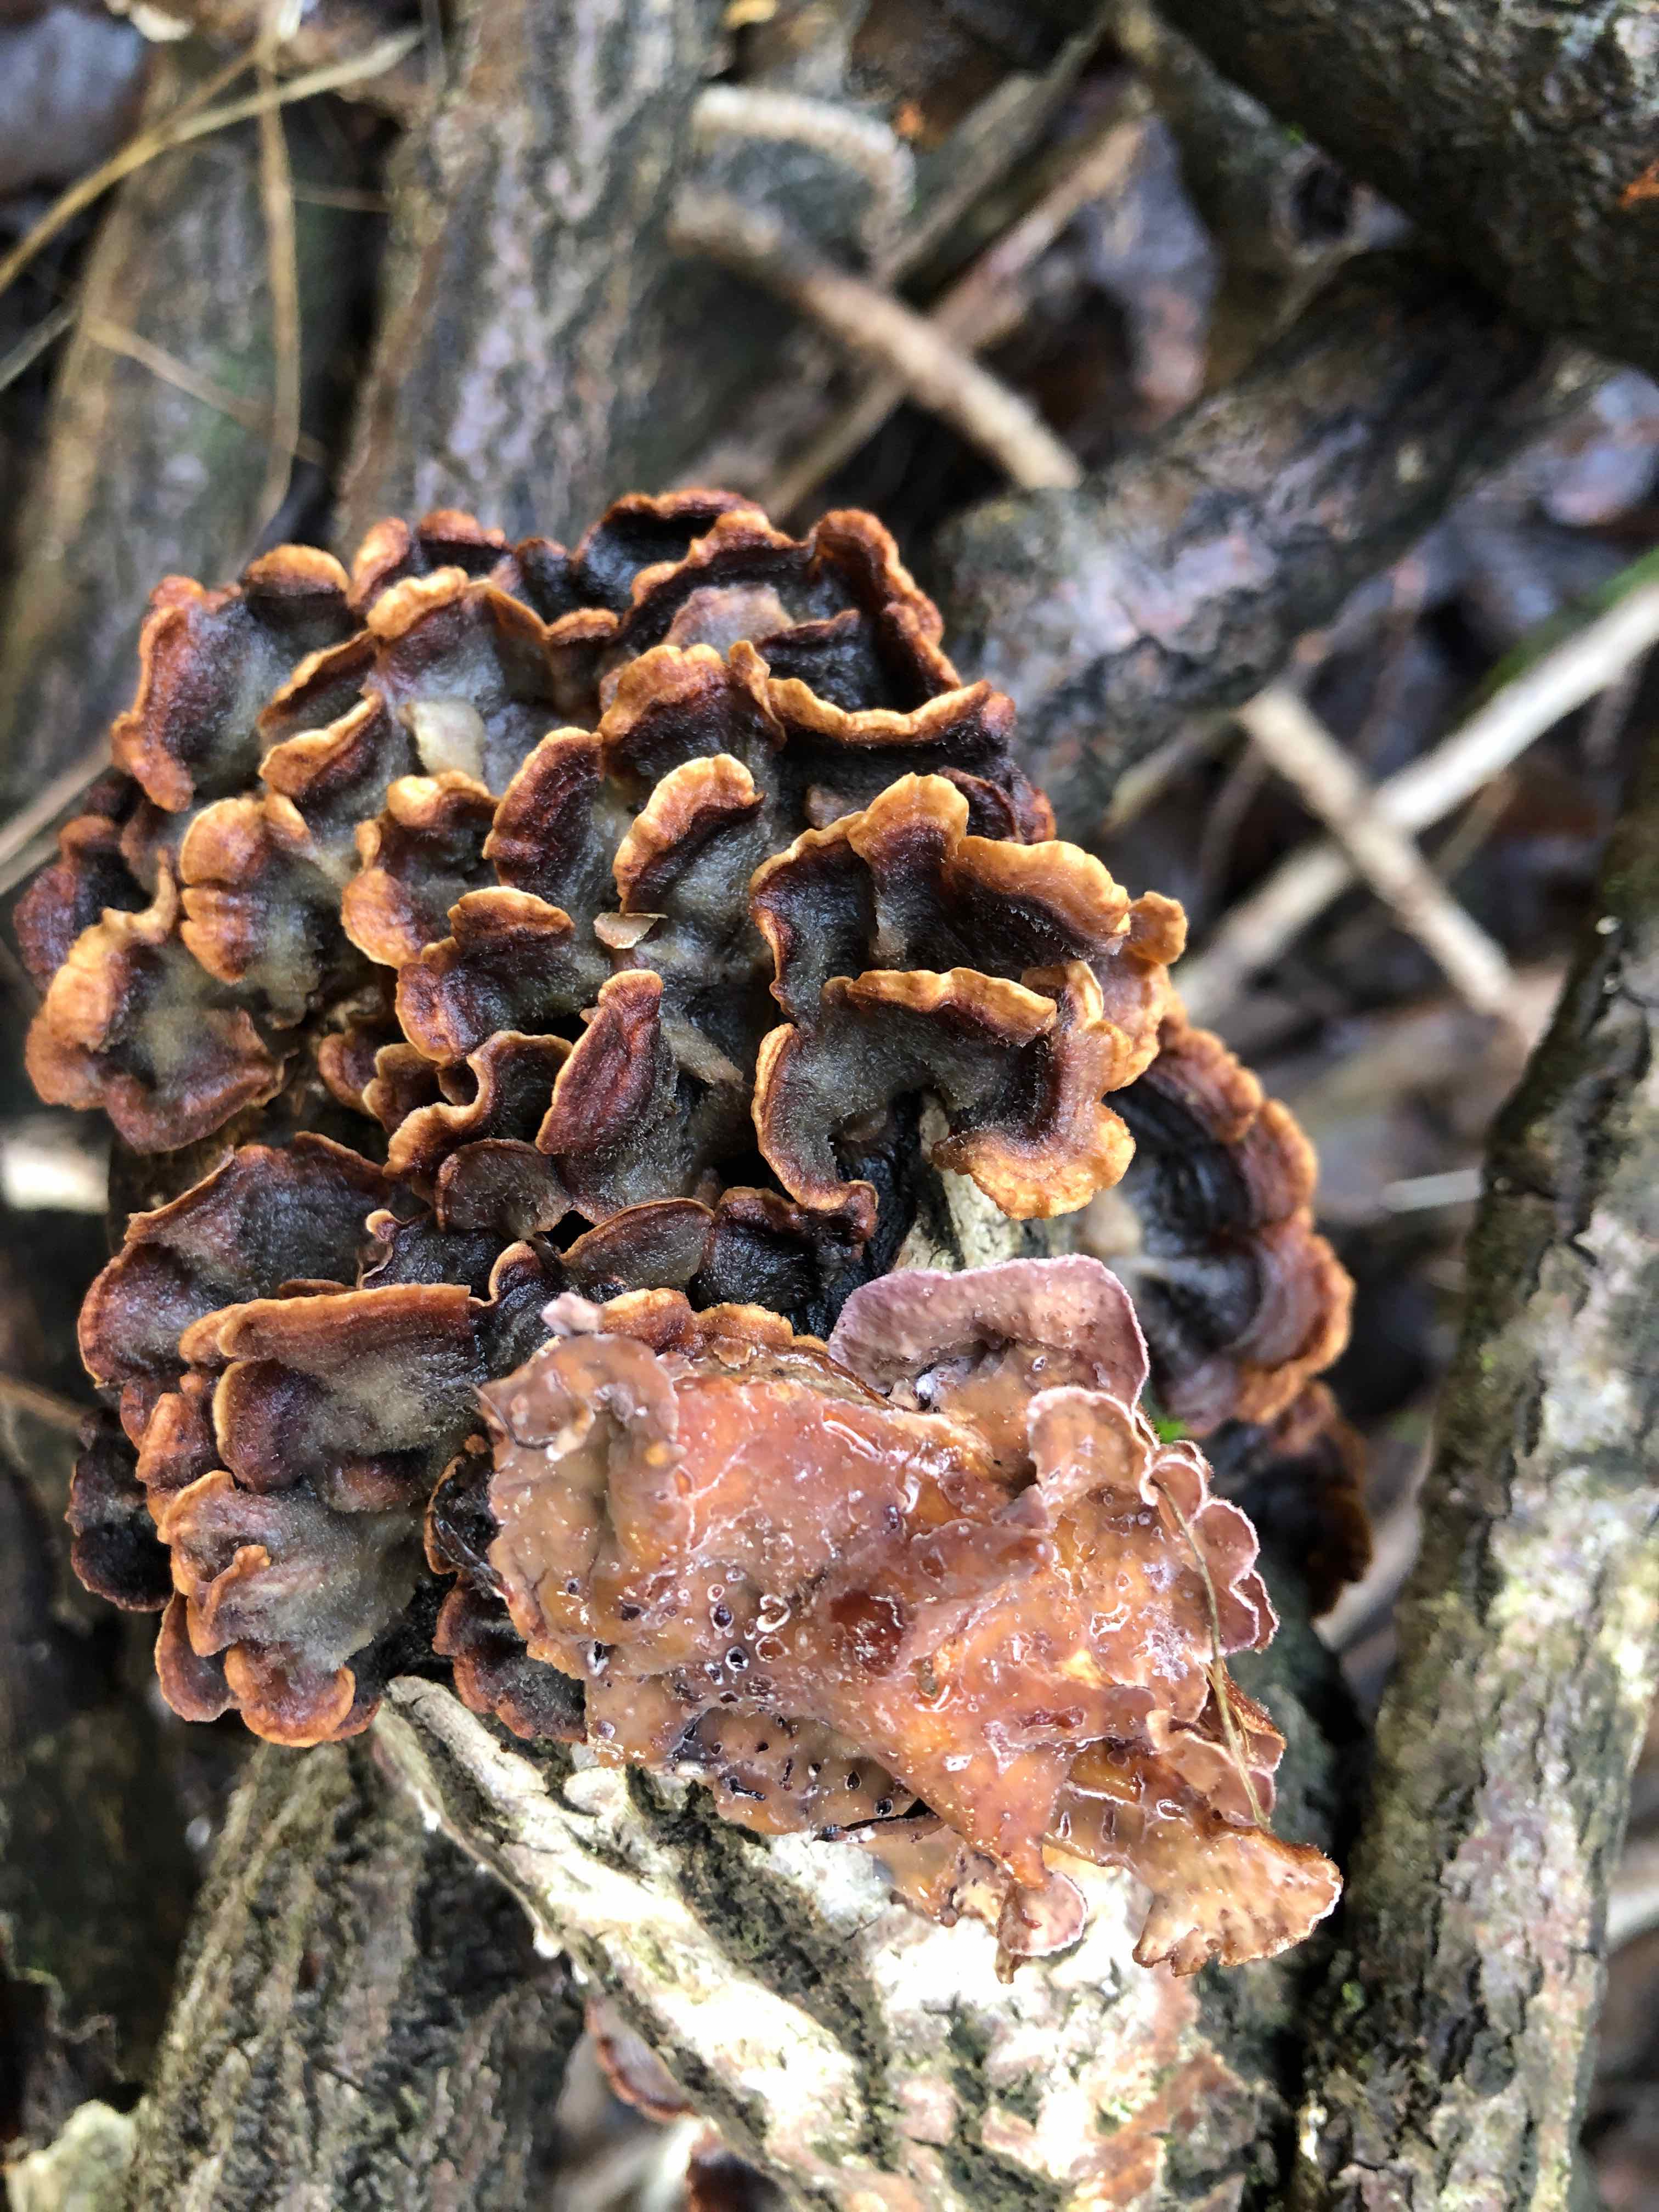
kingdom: Fungi
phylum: Basidiomycota
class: Agaricomycetes
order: Agaricales
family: Cyphellaceae
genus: Chondrostereum
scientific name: Chondrostereum purpureum
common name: purpurlædersvamp
